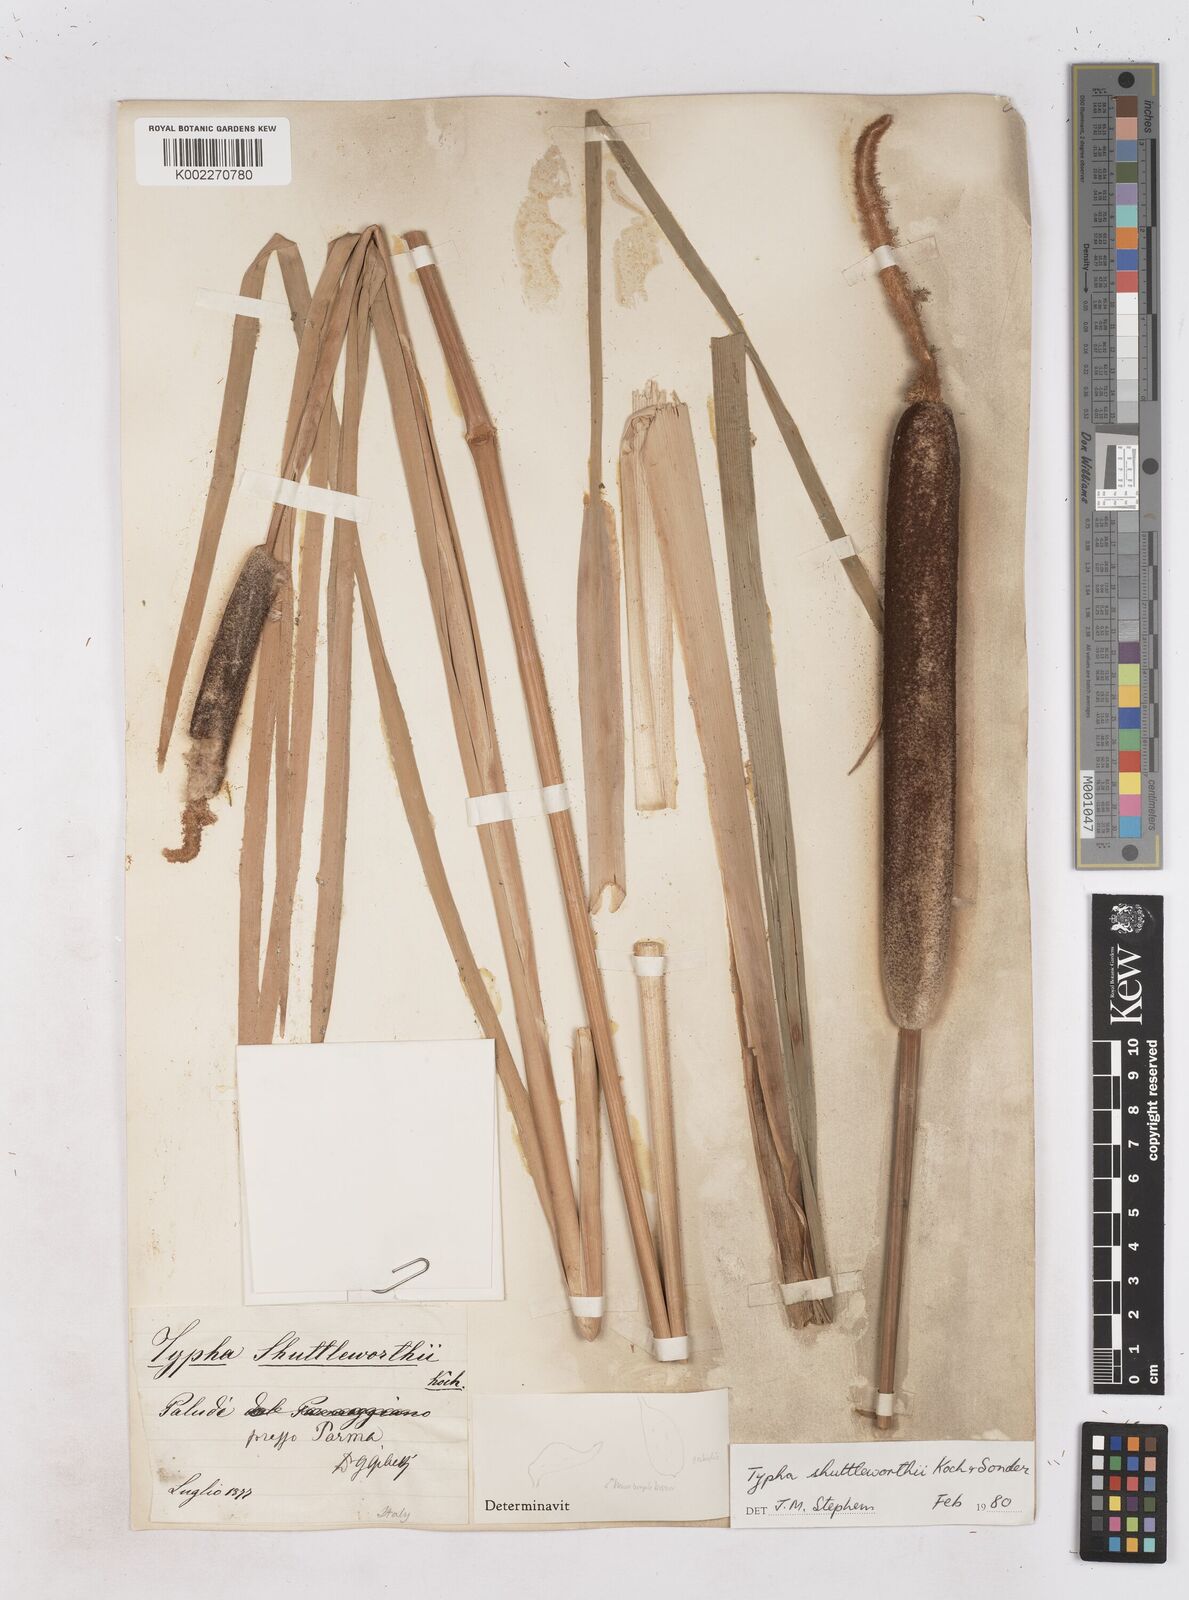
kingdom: Plantae
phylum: Tracheophyta
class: Liliopsida
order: Poales
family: Typhaceae
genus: Typha
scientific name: Typha shuttleworthii
